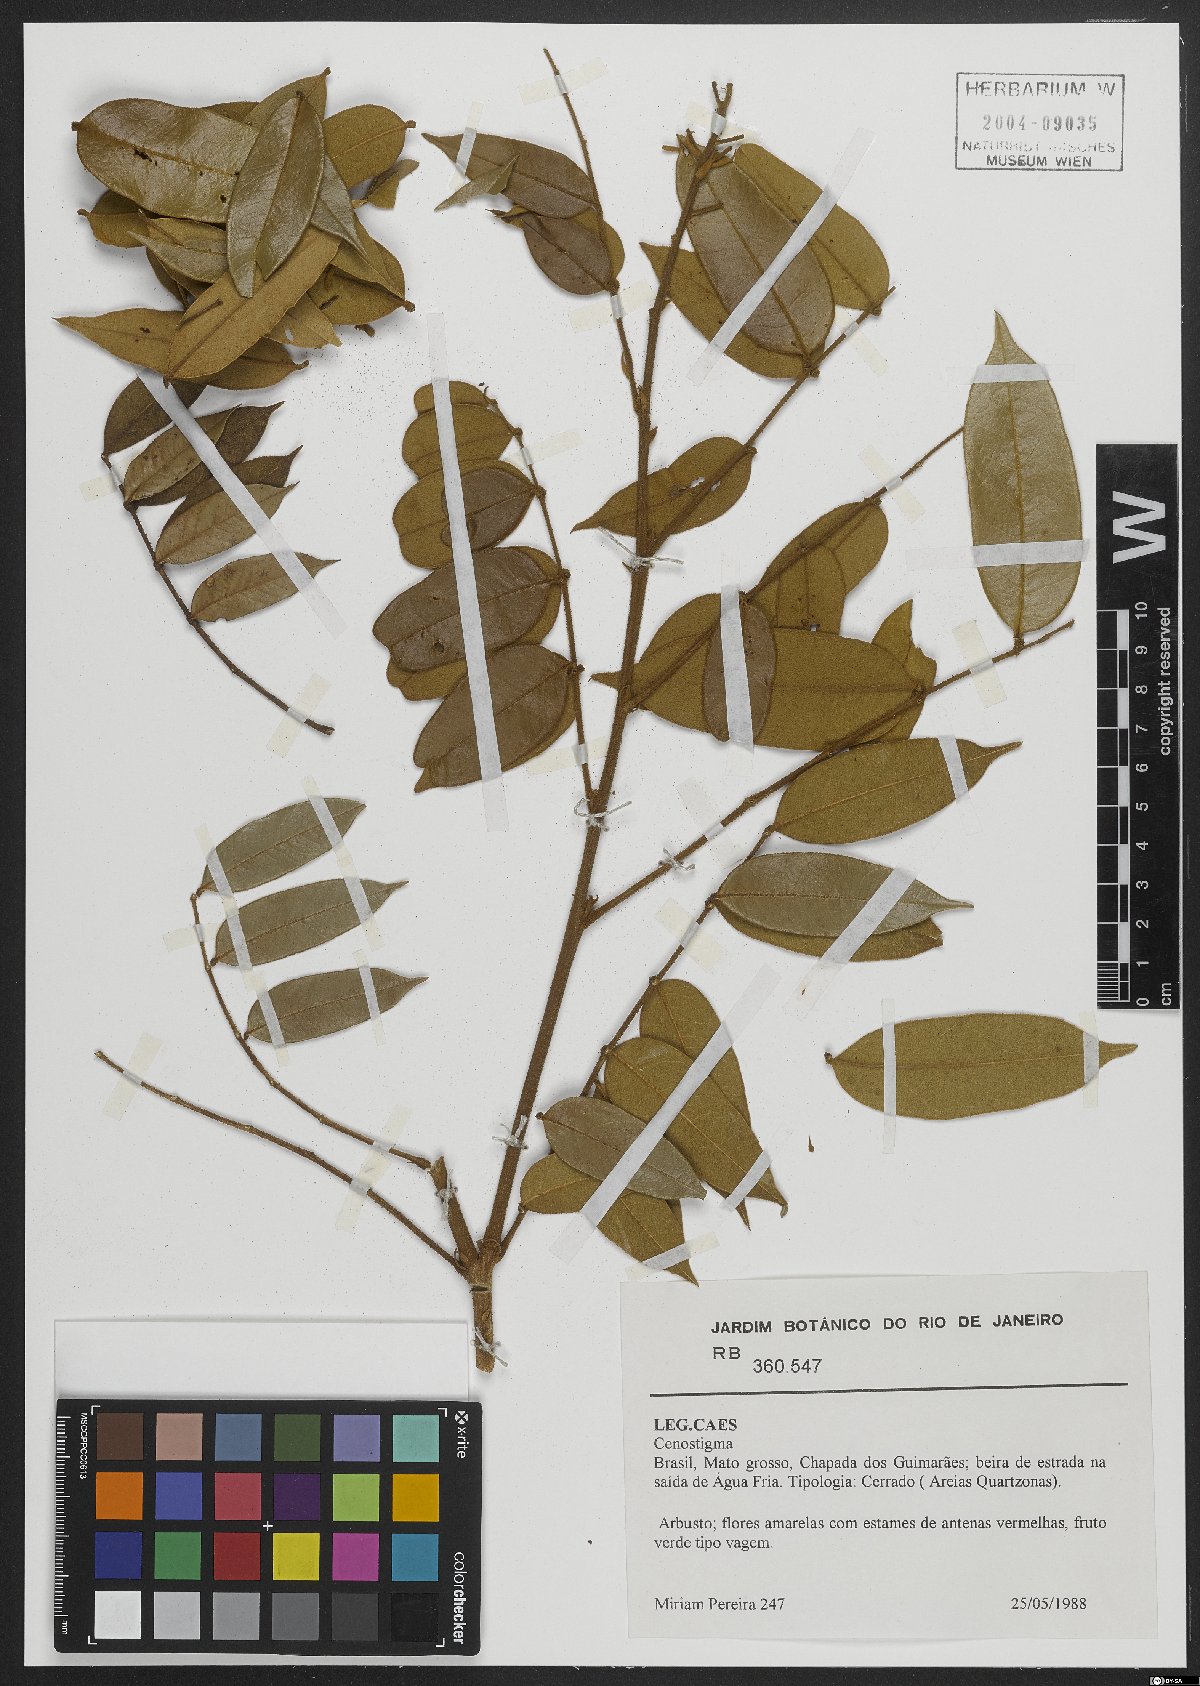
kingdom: Plantae
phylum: Tracheophyta
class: Magnoliopsida
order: Fabales
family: Fabaceae
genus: Cenostigma
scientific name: Cenostigma
